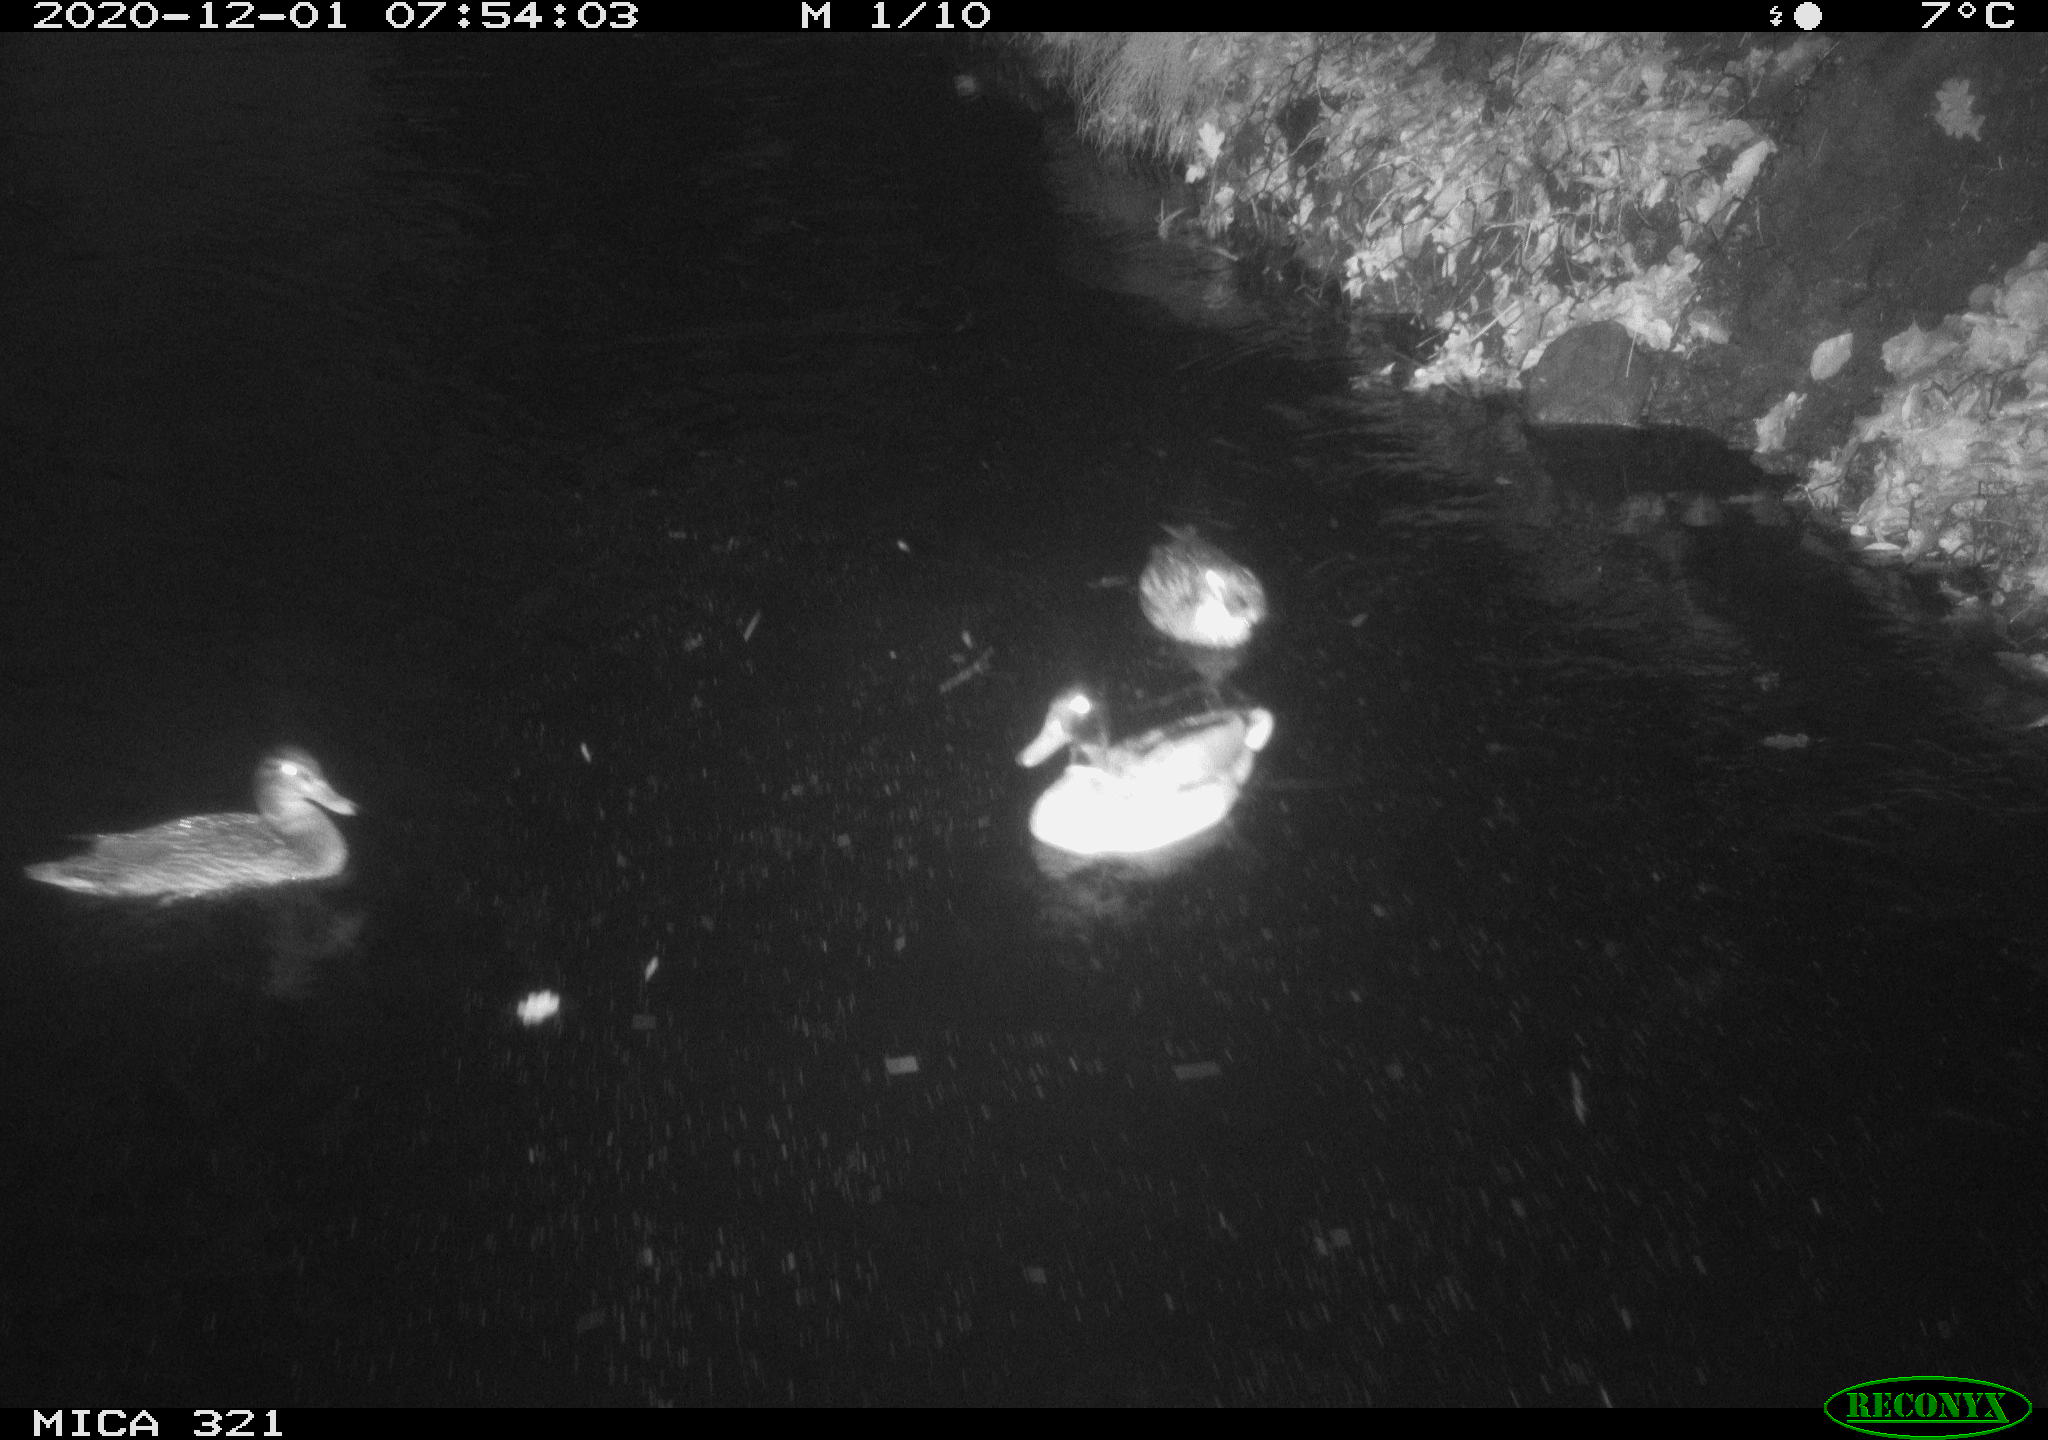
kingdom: Animalia
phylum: Chordata
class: Aves
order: Anseriformes
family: Anatidae
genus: Anas
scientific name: Anas platyrhynchos
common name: Mallard
